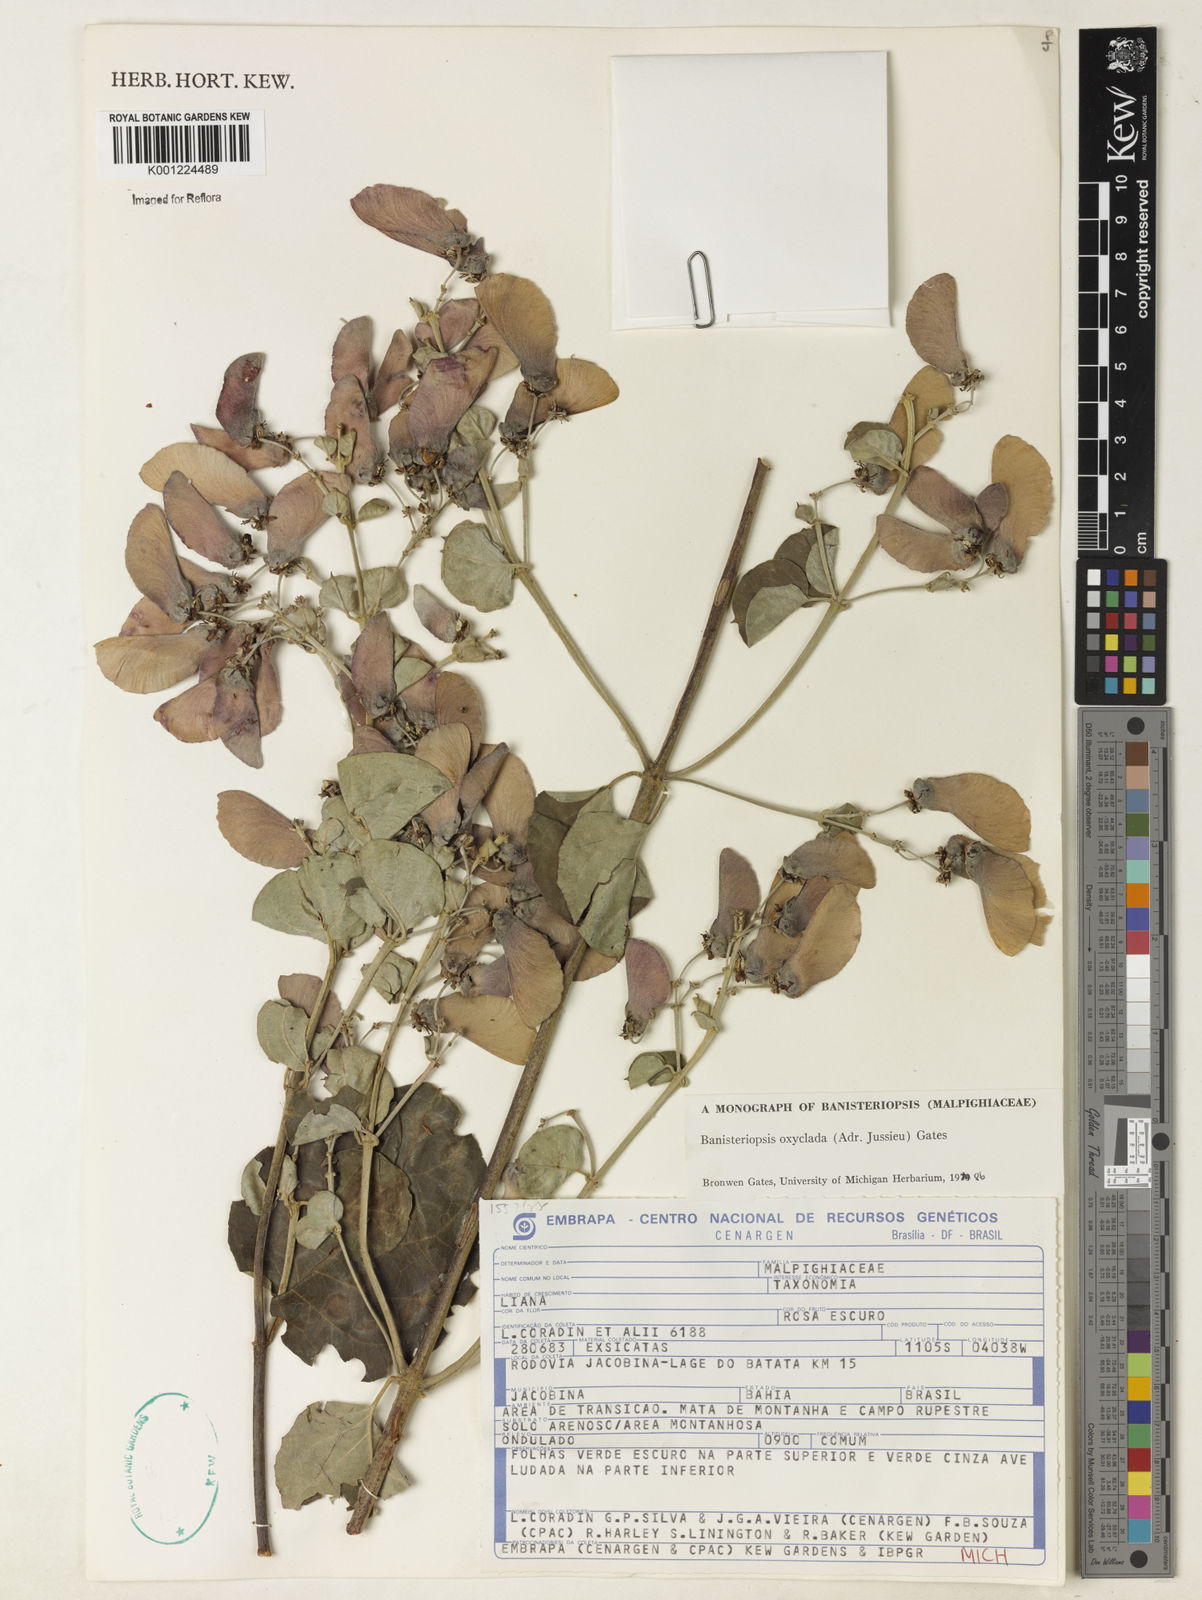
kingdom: Plantae
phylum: Tracheophyta
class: Magnoliopsida
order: Malpighiales
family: Malpighiaceae
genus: Banisteriopsis
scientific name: Banisteriopsis oxyclada
